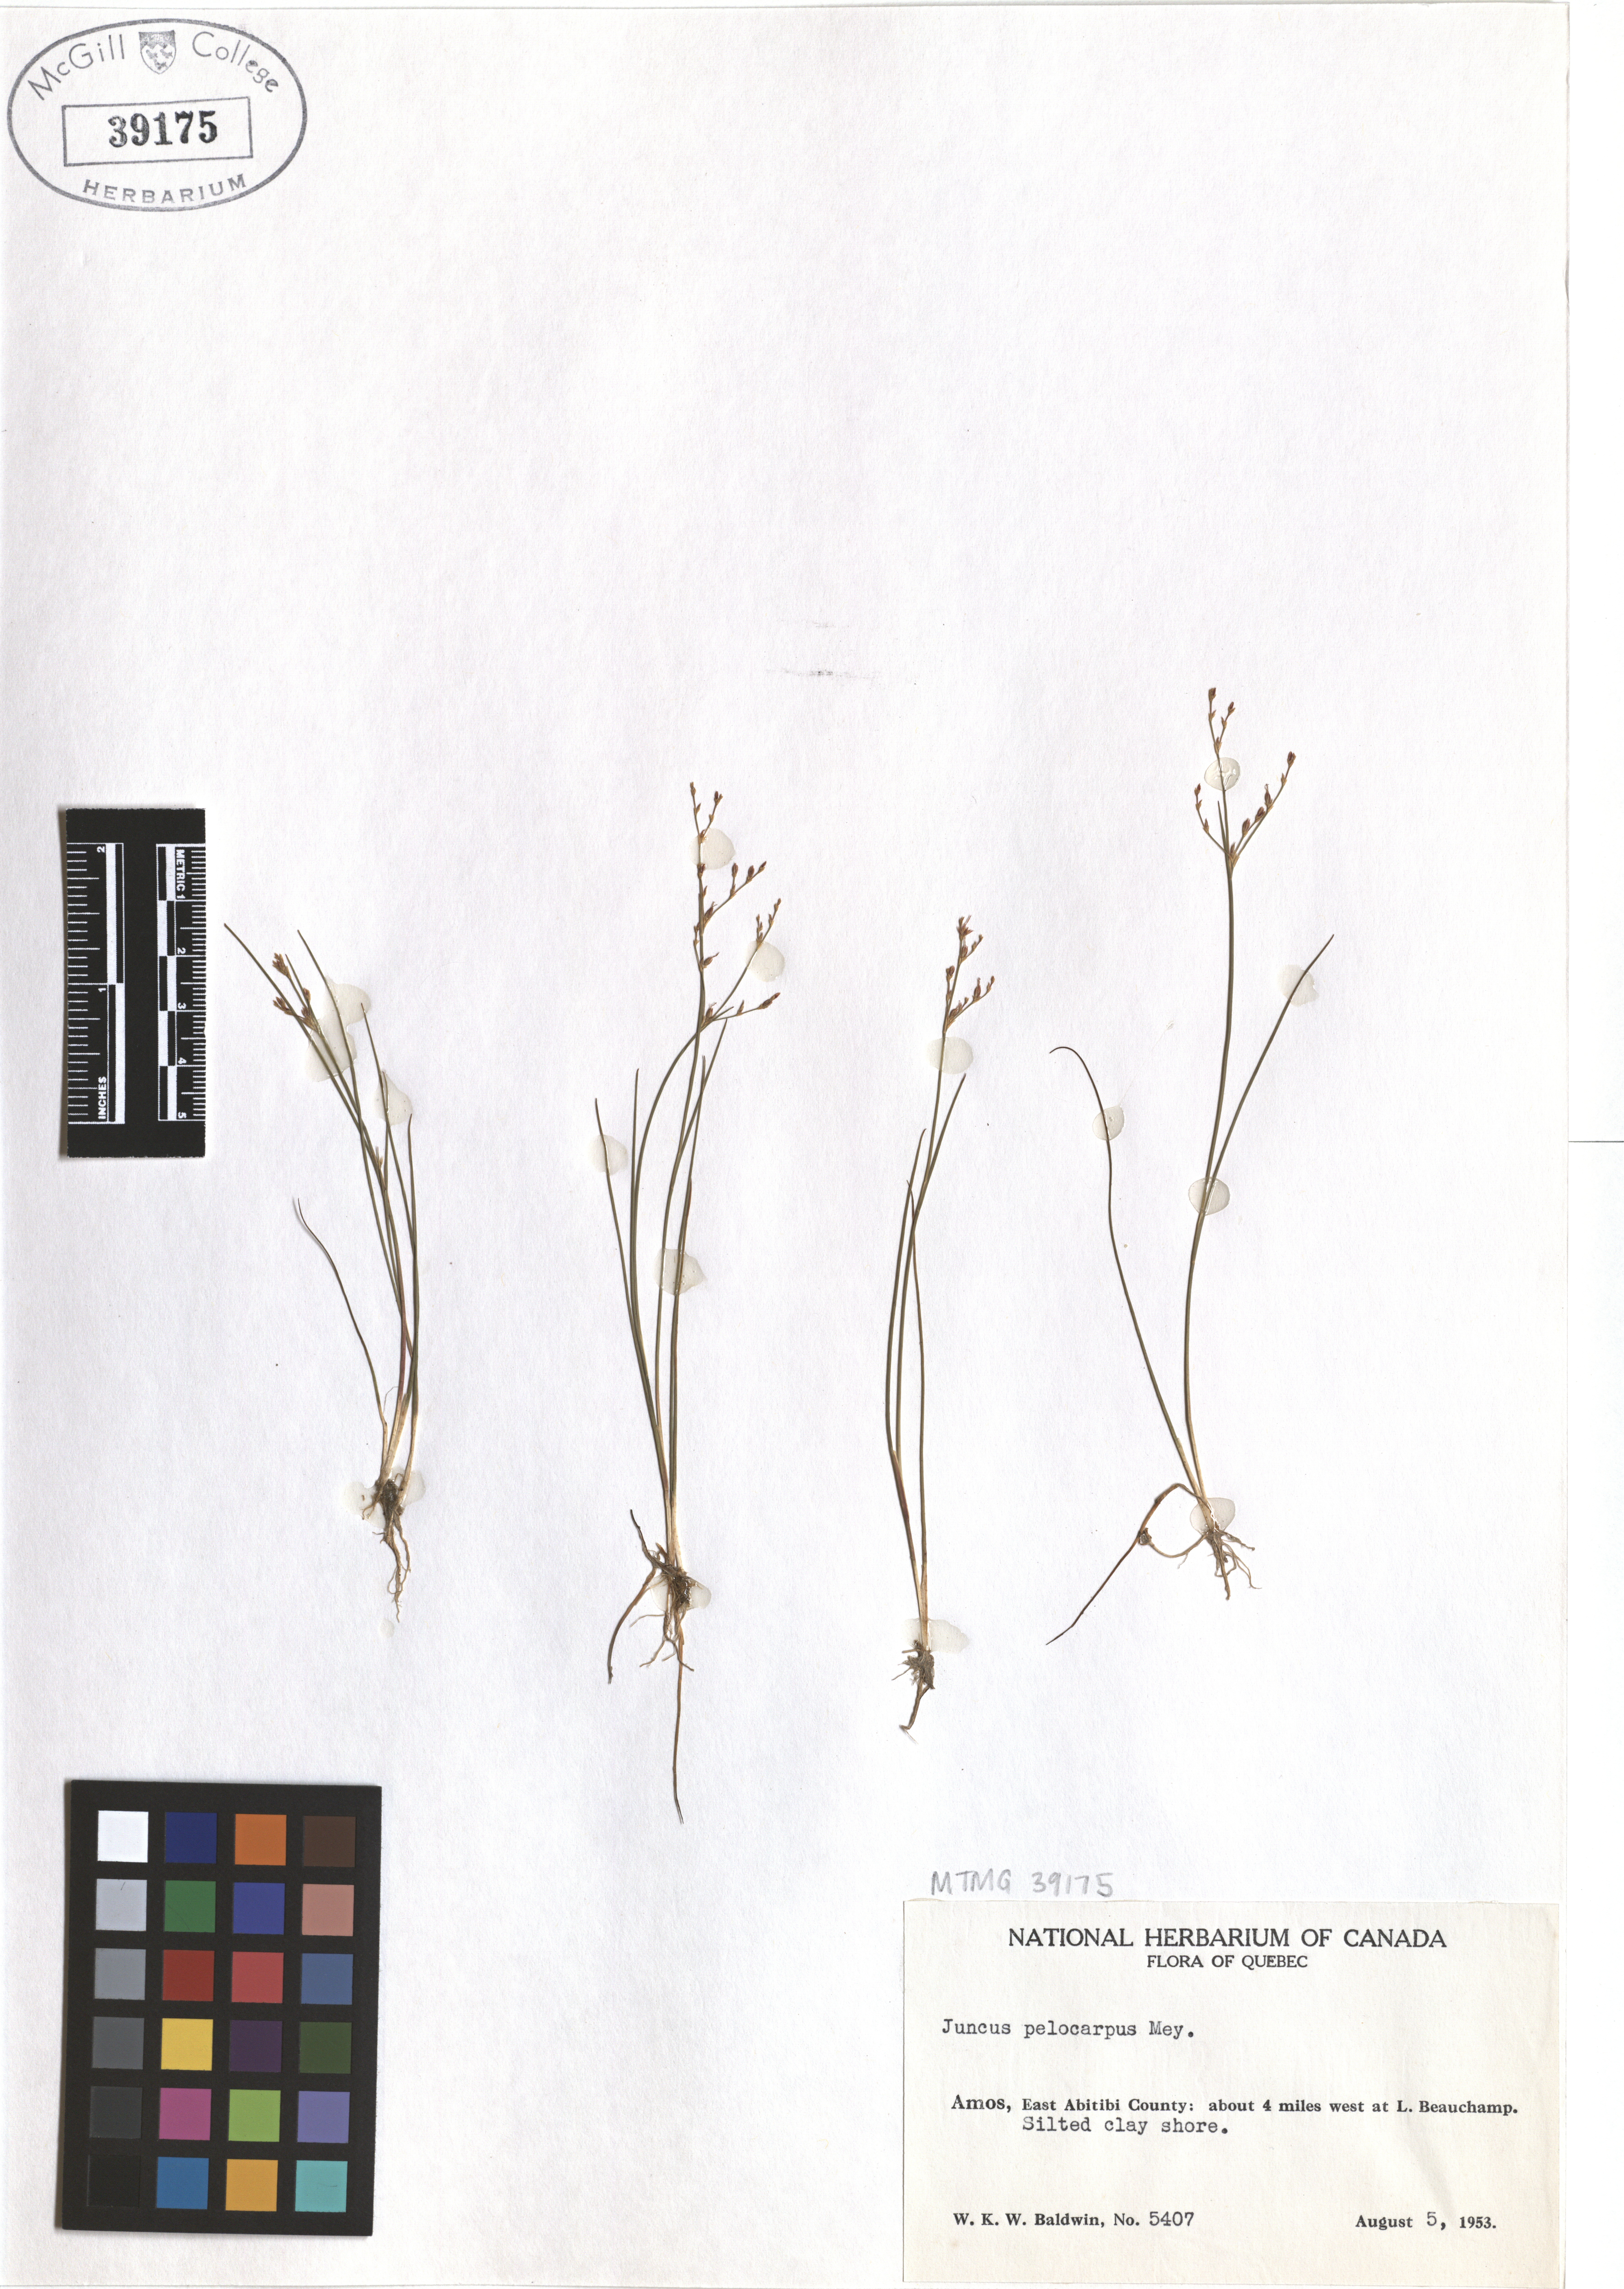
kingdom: Plantae
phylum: Tracheophyta
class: Liliopsida
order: Poales
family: Juncaceae
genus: Juncus
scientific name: Juncus pelocarpus
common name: Brown-fruited rush
